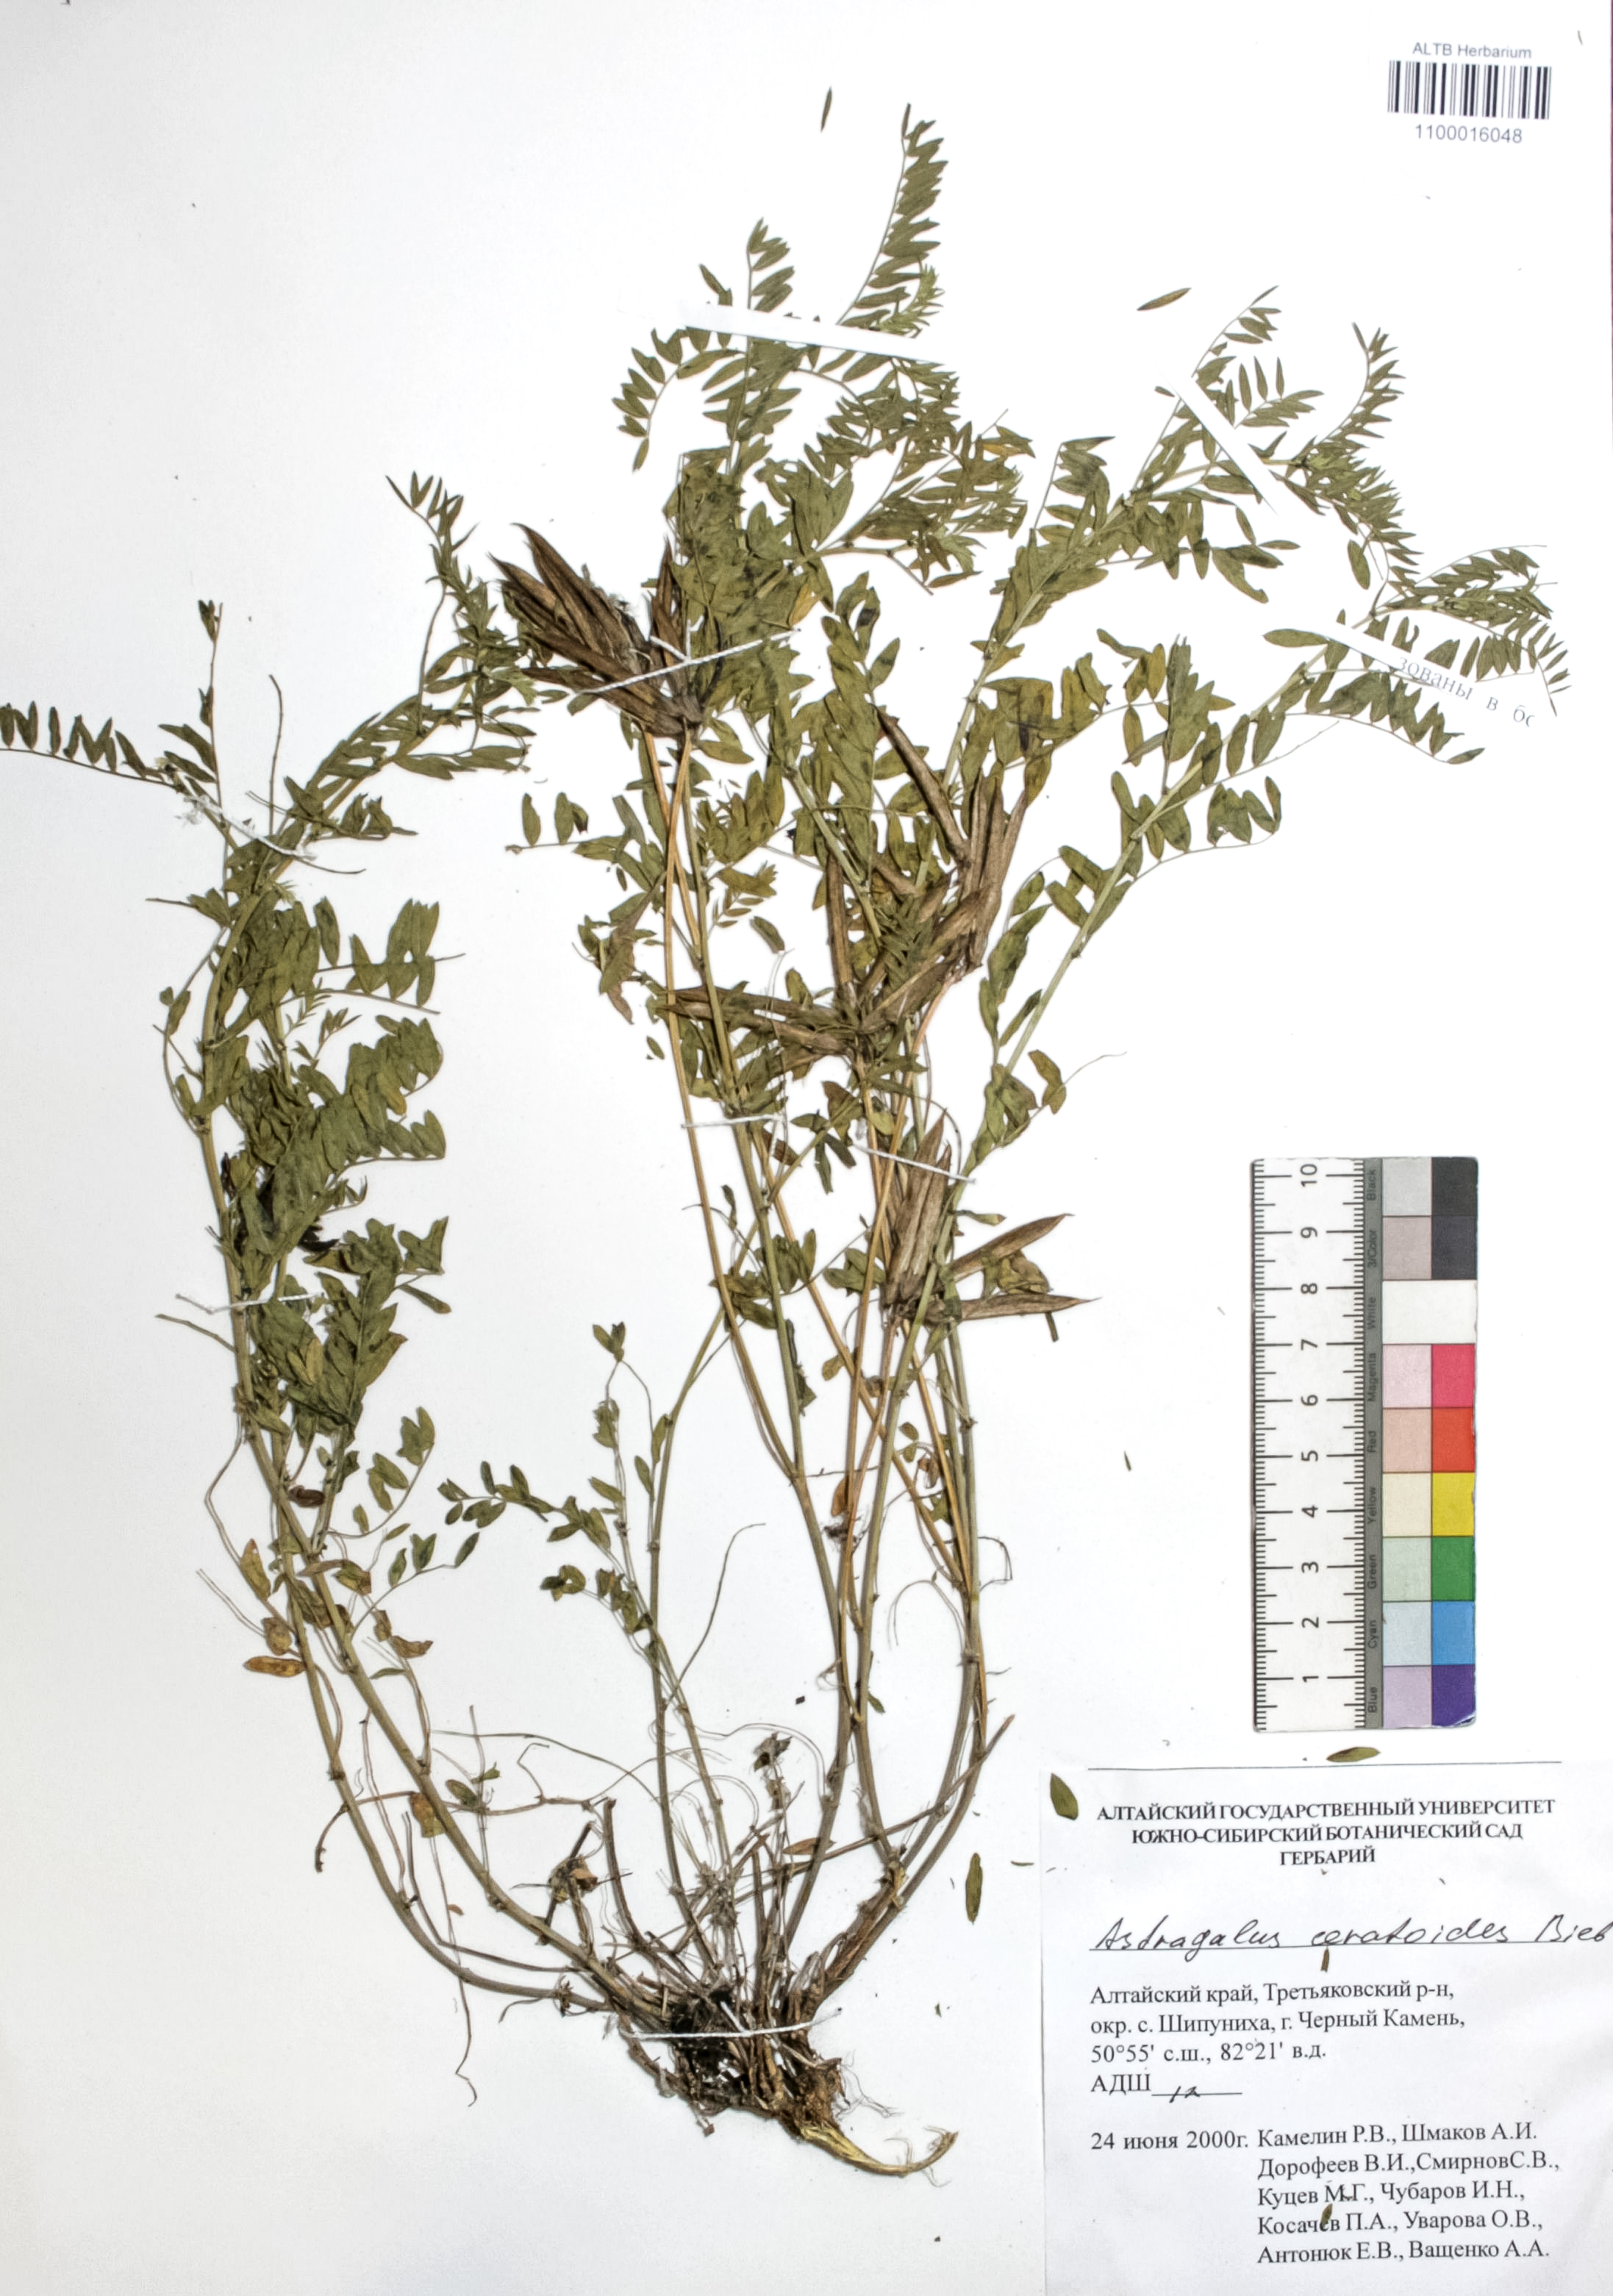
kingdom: Plantae
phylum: Tracheophyta
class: Magnoliopsida
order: Fabales
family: Fabaceae
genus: Astragalus
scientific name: Astragalus ceratoides
